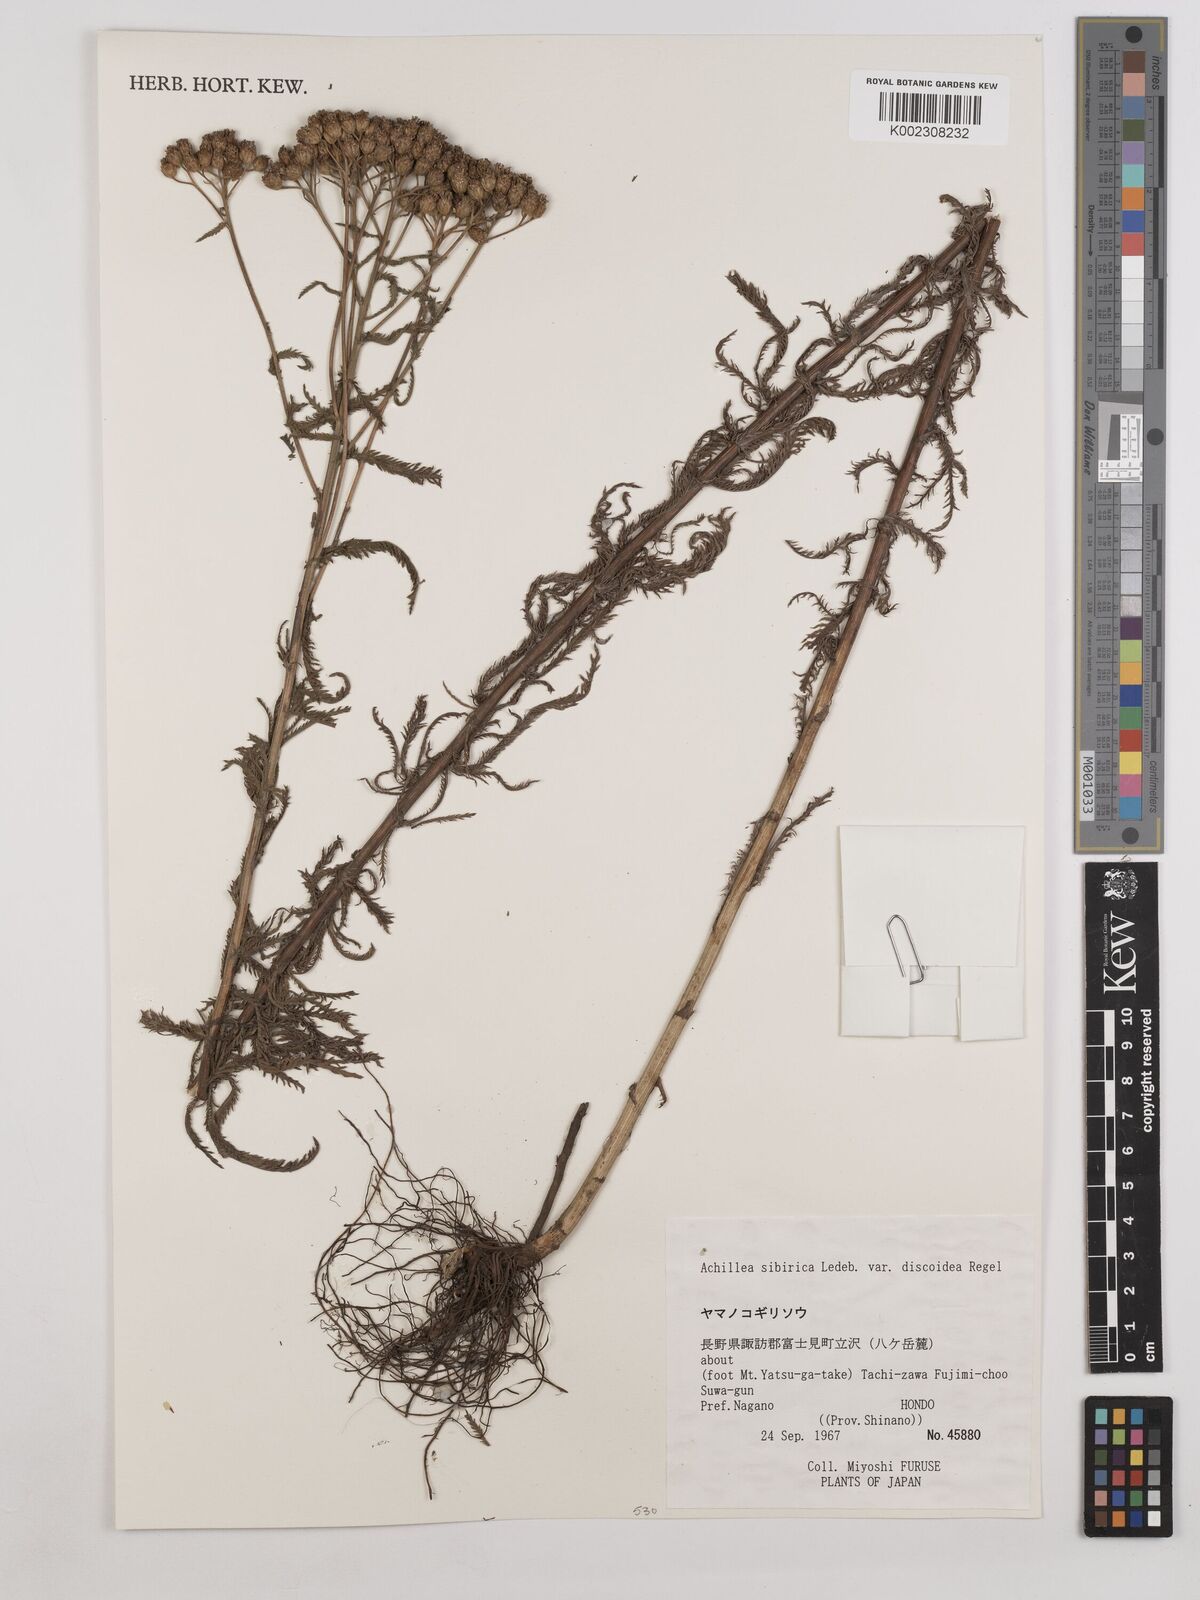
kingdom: Plantae
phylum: Tracheophyta
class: Magnoliopsida
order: Asterales
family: Asteraceae
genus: Achillea
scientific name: Achillea alpina
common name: Siberian yarrow
